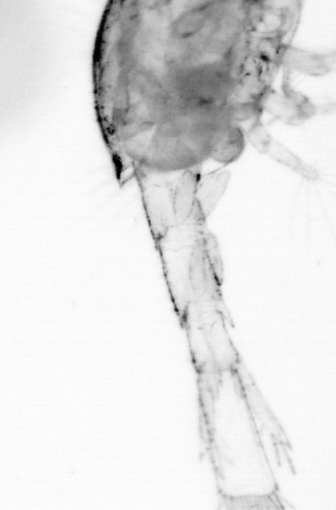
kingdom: Animalia
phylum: Arthropoda
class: Copepoda
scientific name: Copepoda
